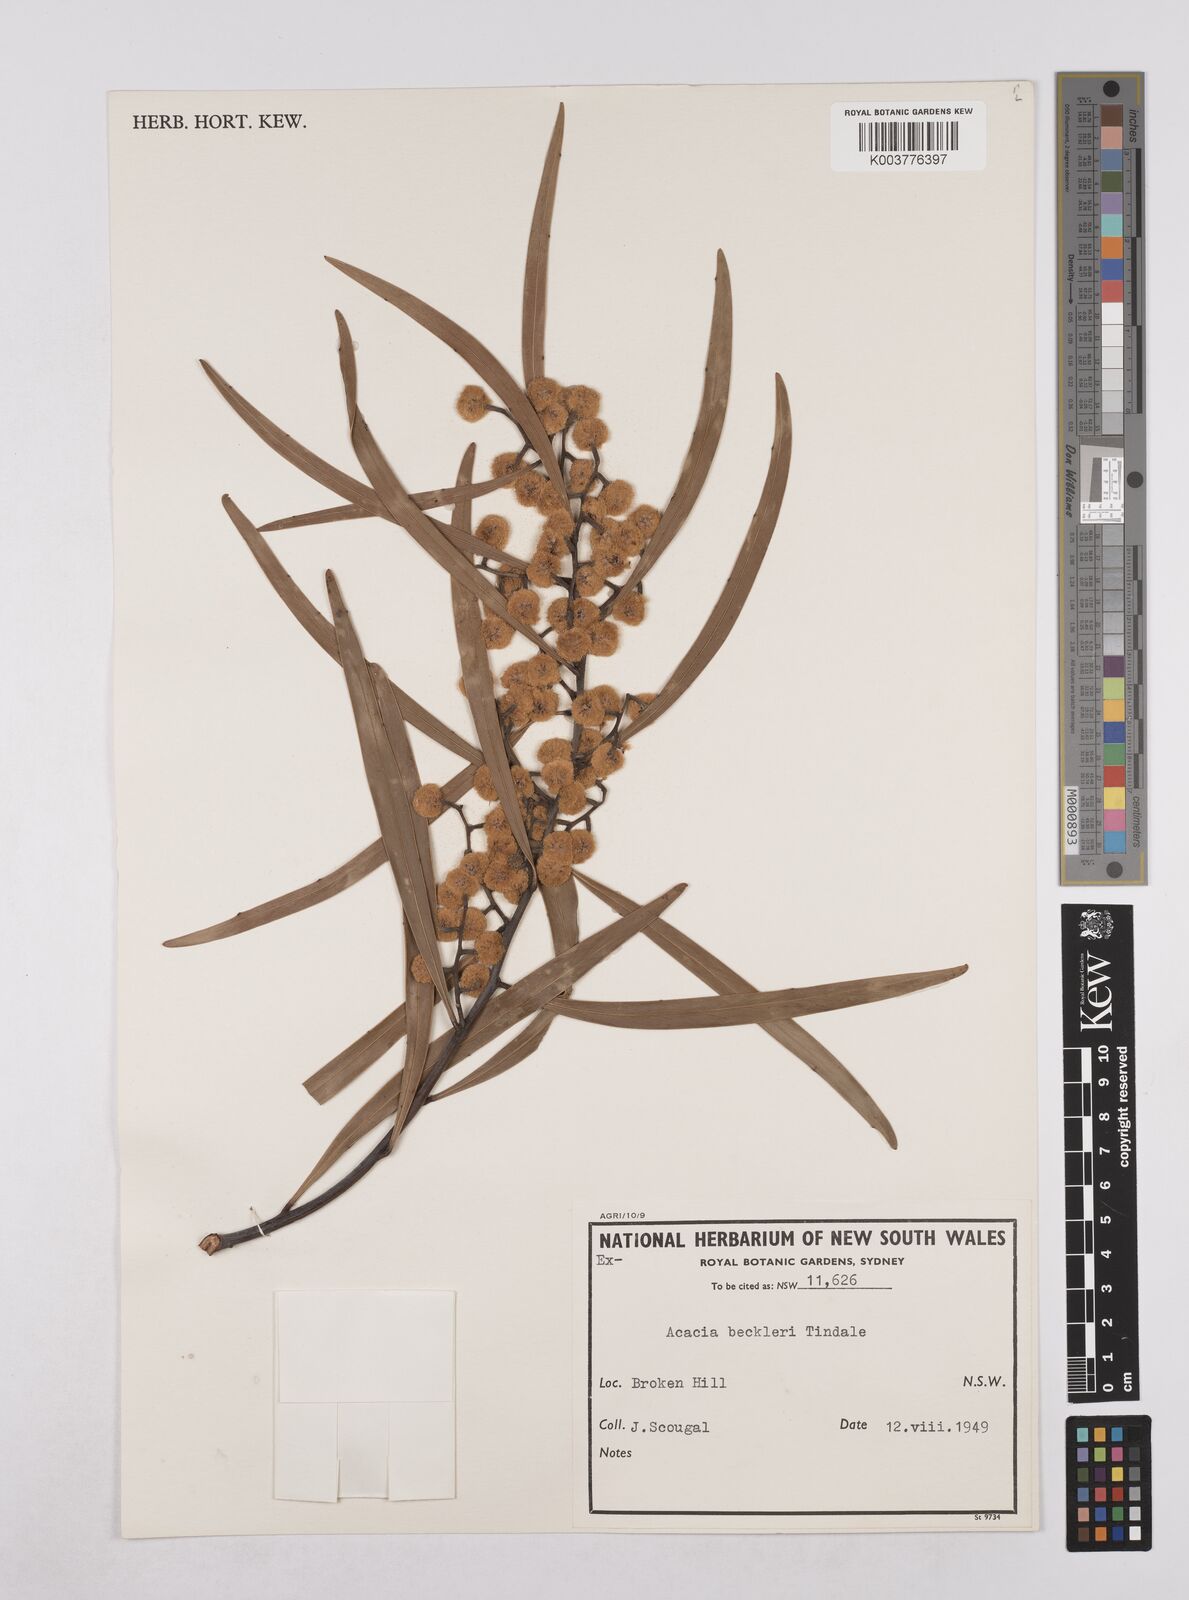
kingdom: Plantae
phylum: Tracheophyta
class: Magnoliopsida
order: Fabales
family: Fabaceae
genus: Acacia
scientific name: Acacia beckleri
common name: Barrier range wattle
